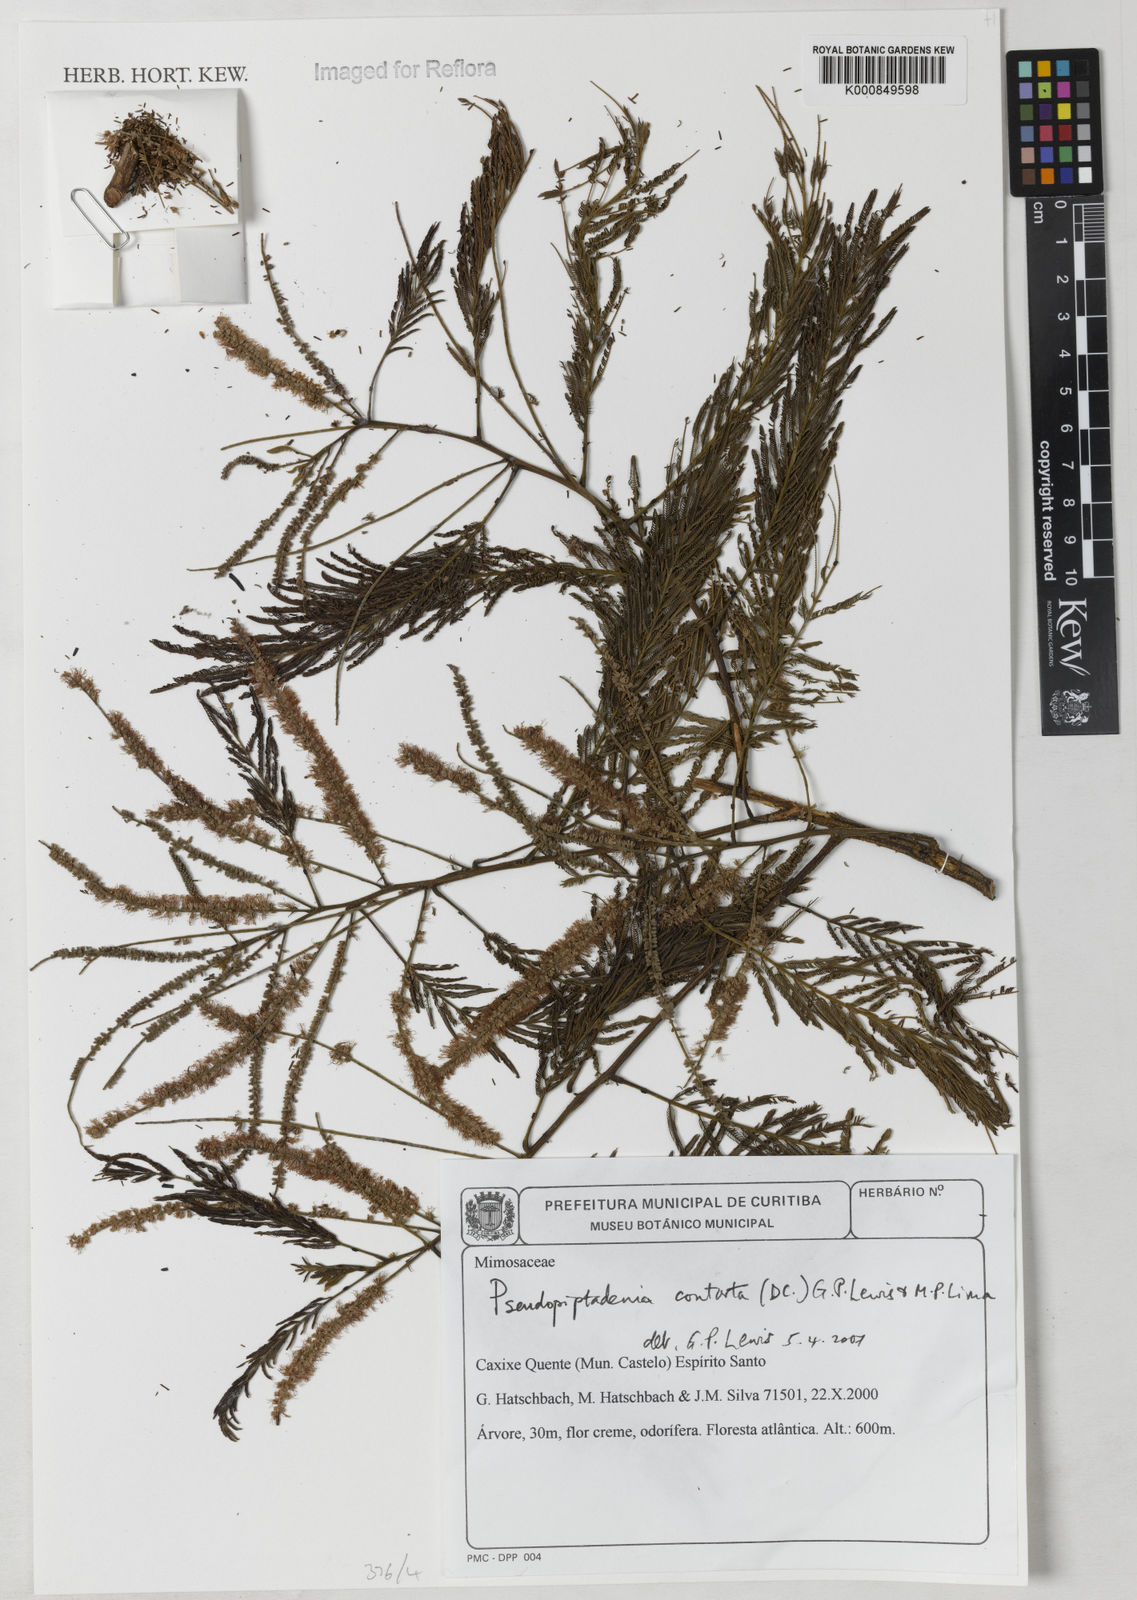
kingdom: Plantae
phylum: Tracheophyta
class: Magnoliopsida
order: Fabales
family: Fabaceae
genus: Pseudopiptadenia
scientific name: Pseudopiptadenia contorta
